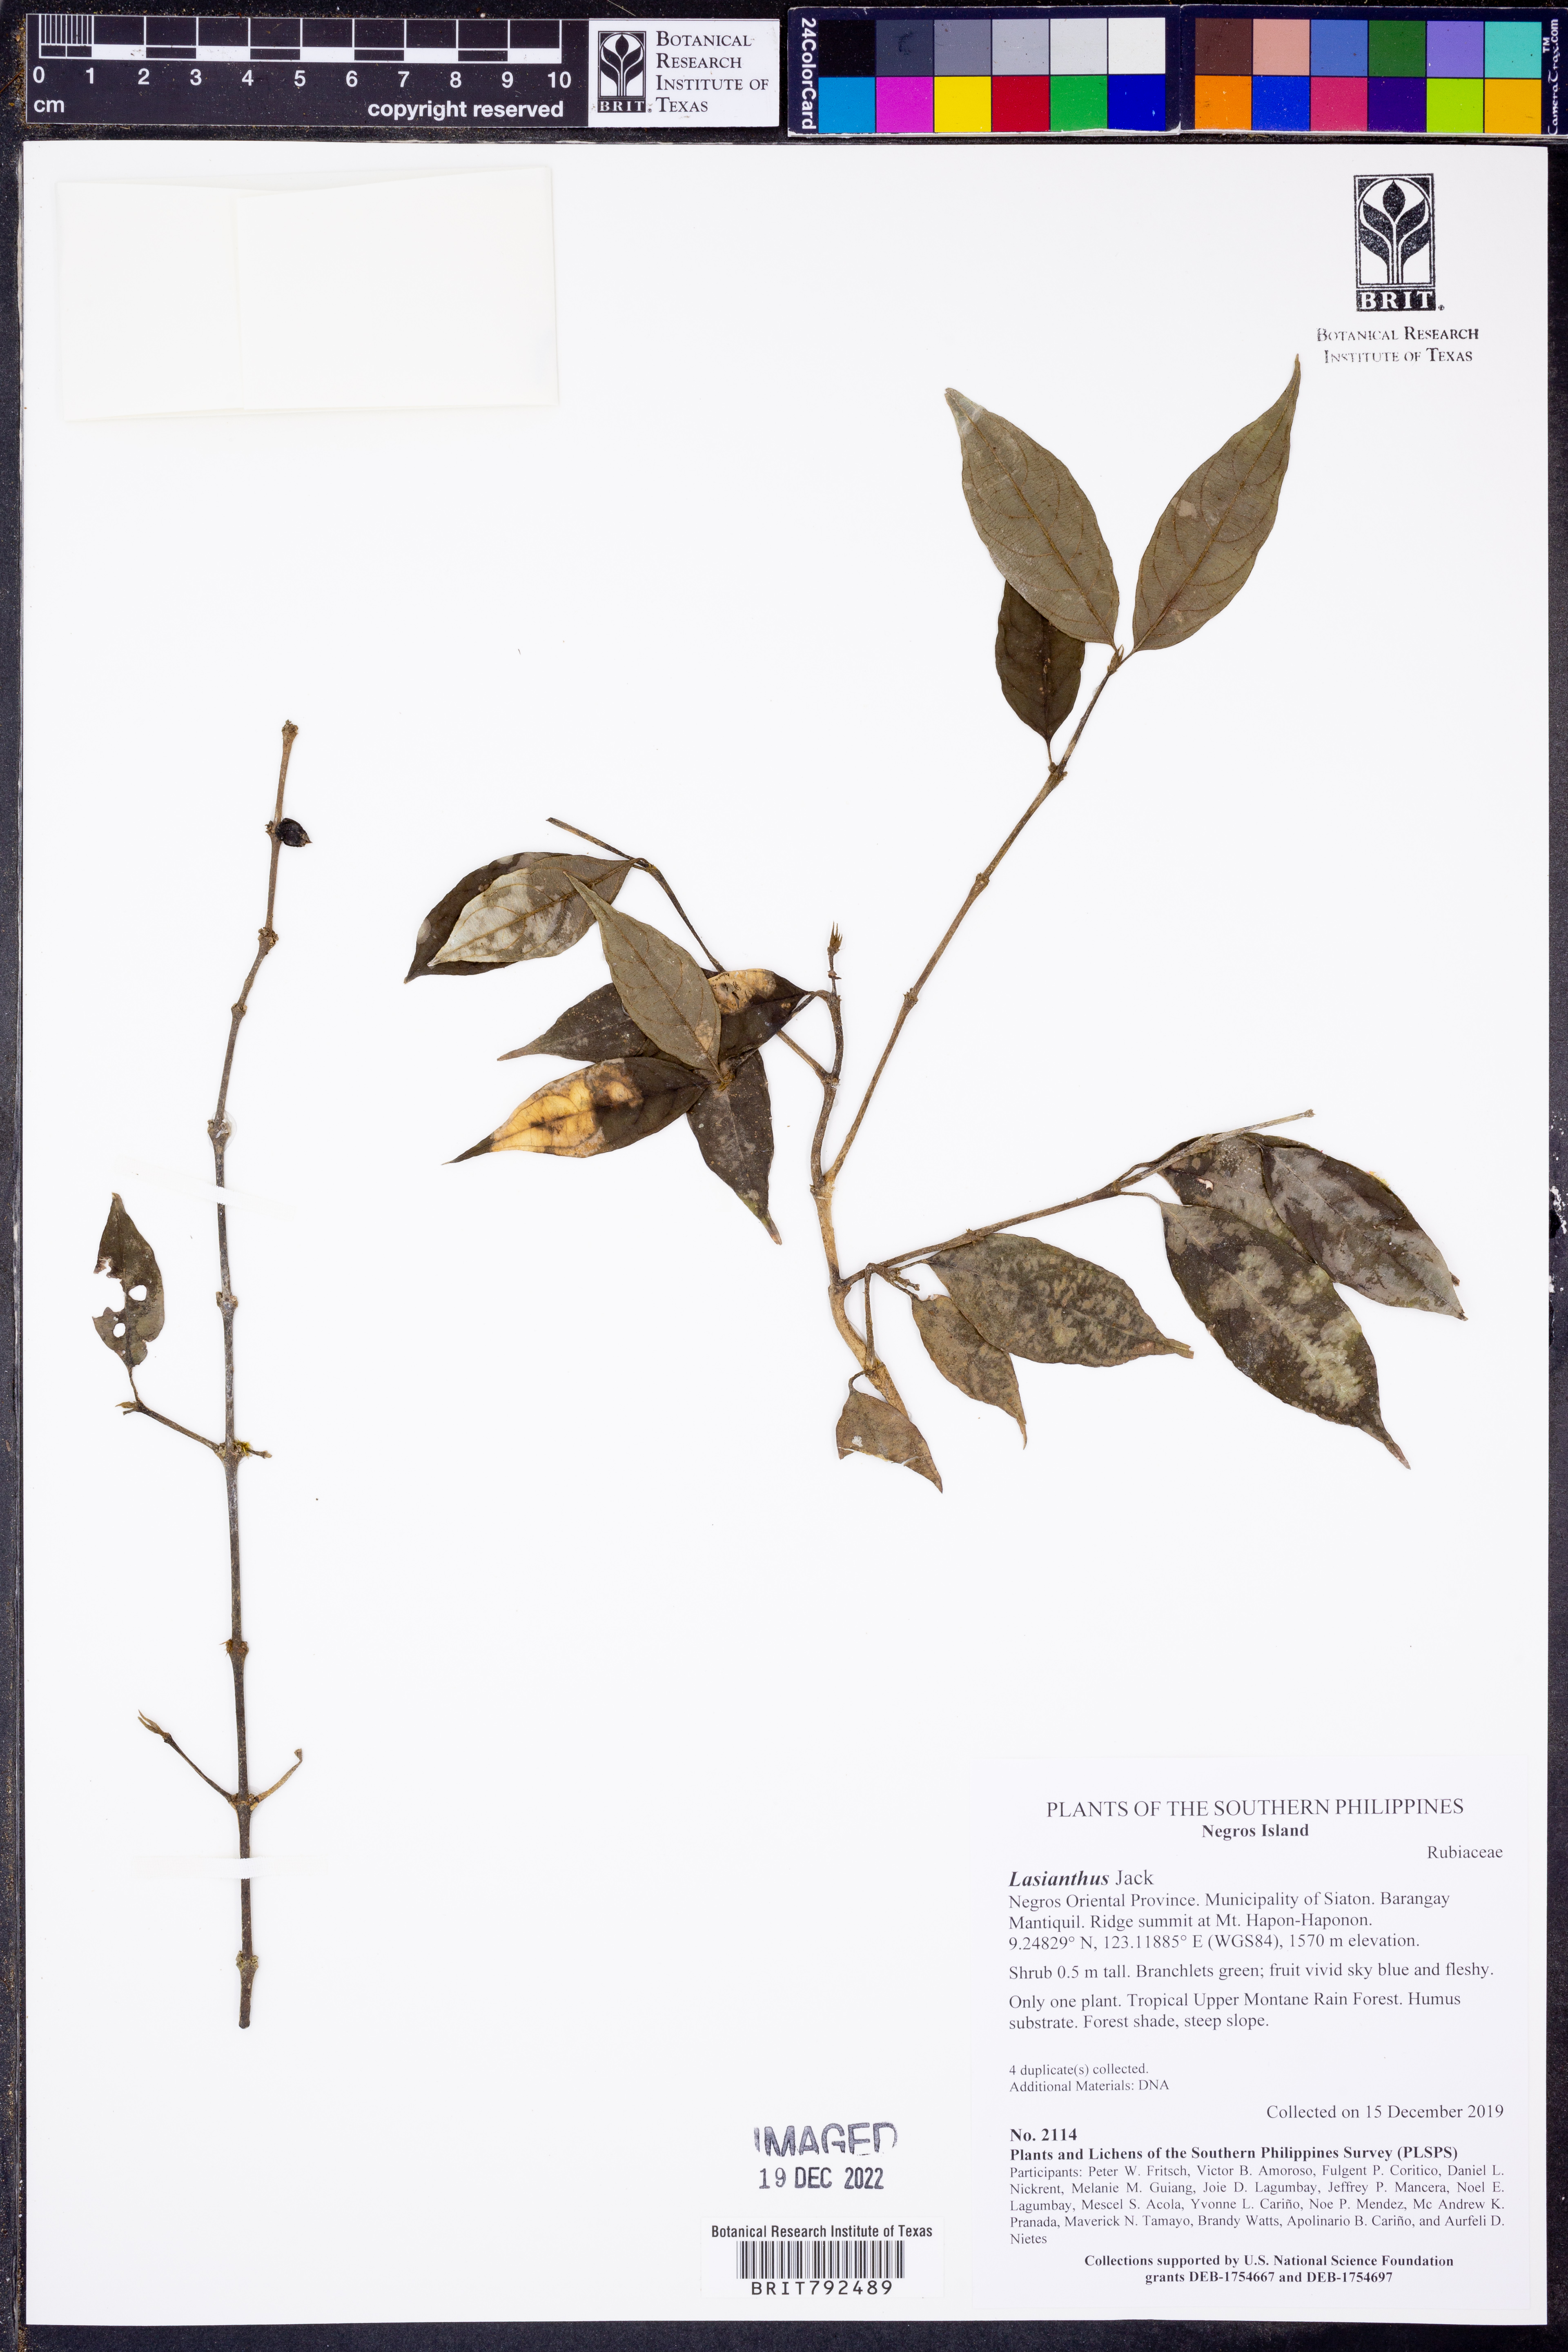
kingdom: Plantae
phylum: Tracheophyta
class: Magnoliopsida
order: Gentianales
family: Rubiaceae
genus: Lasianthus
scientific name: Lasianthus
